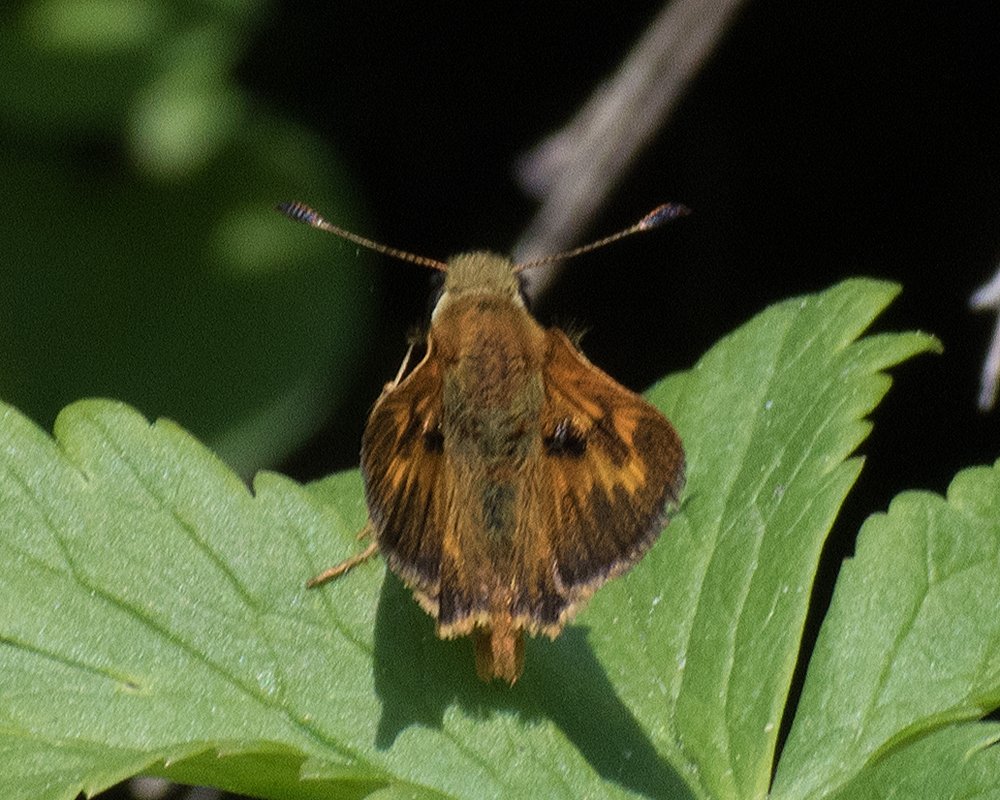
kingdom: Animalia
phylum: Arthropoda
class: Insecta
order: Lepidoptera
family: Hesperiidae
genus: Ochlodes
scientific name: Ochlodes sylvanoides
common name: Woodland Skipper
